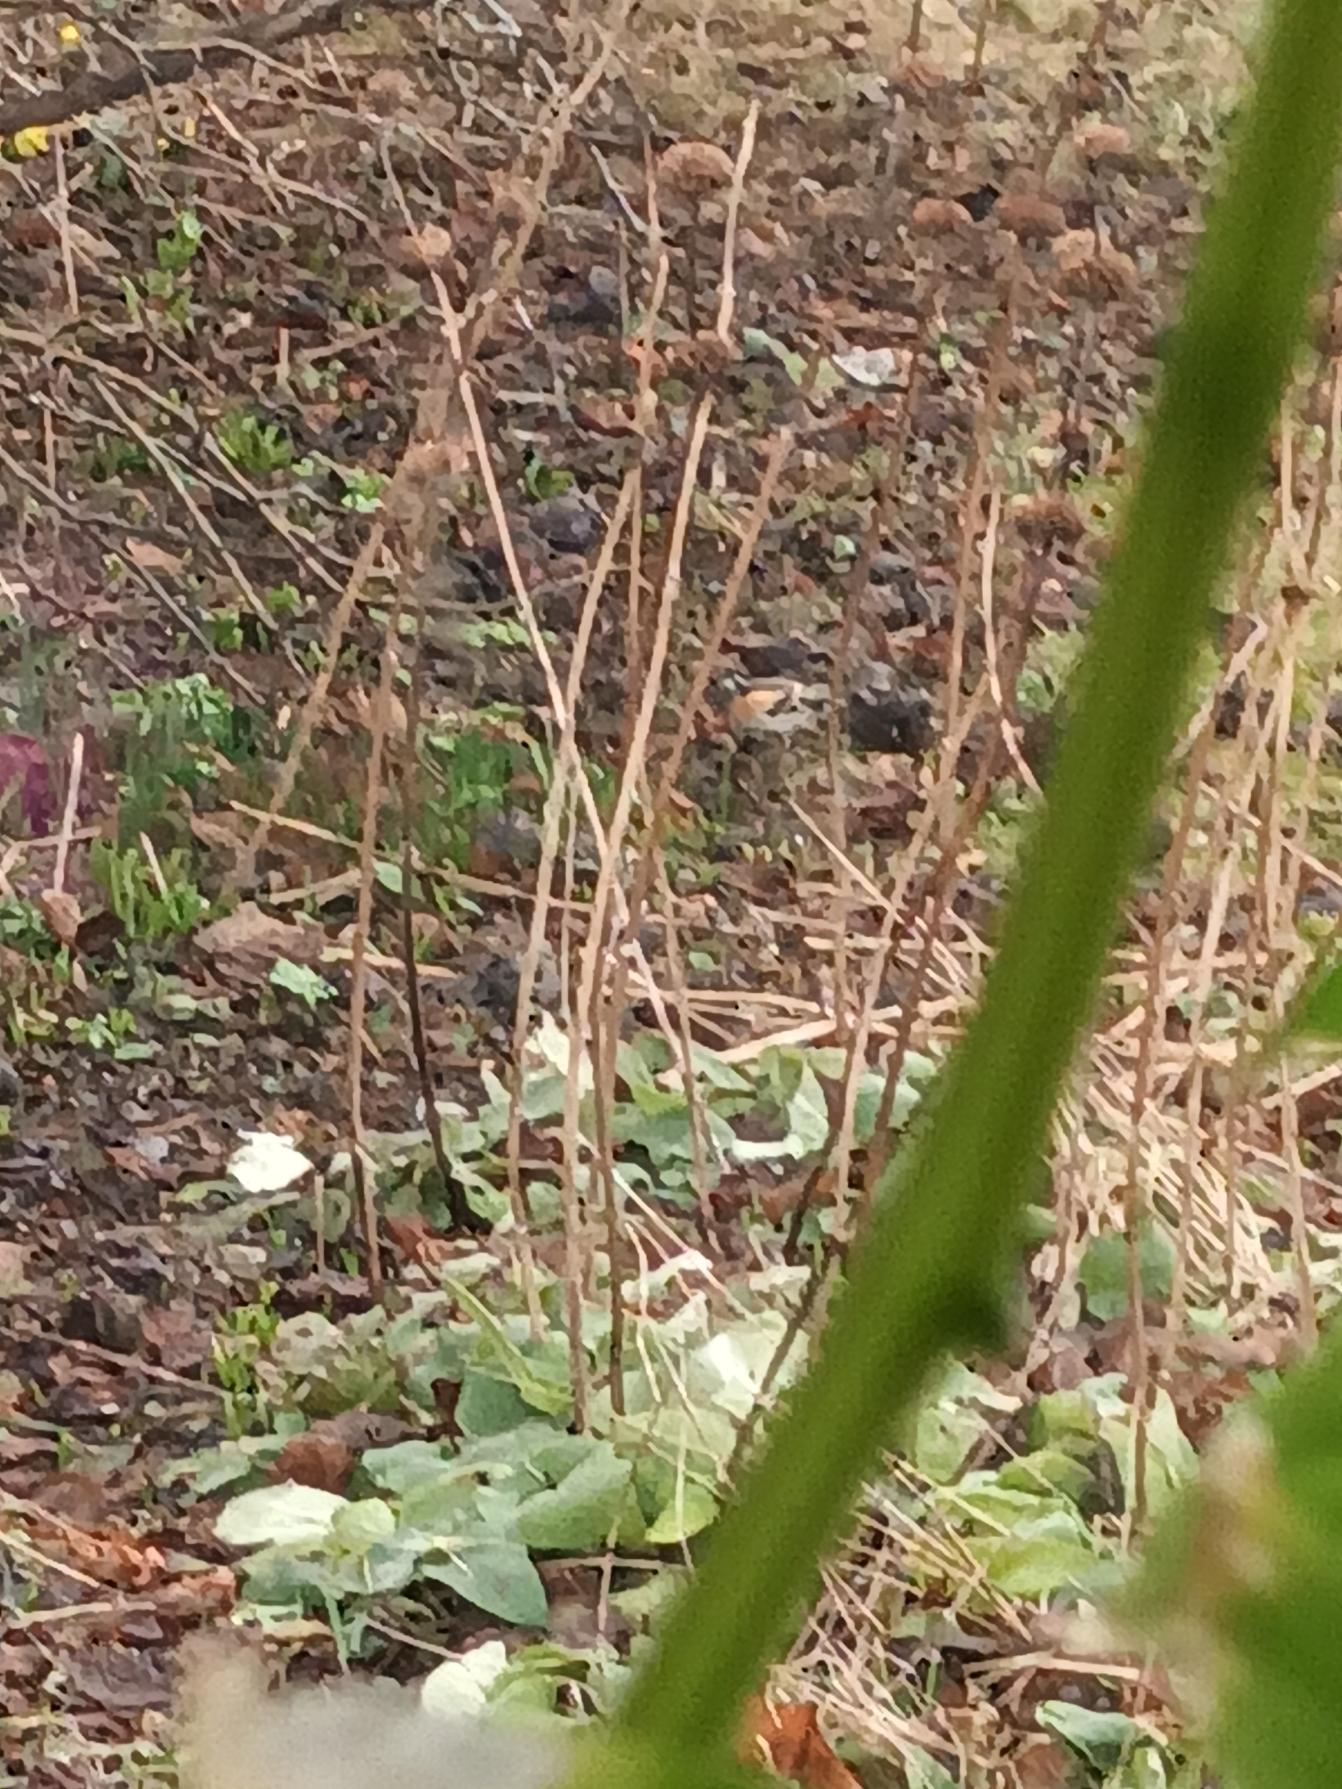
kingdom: Animalia
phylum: Chordata
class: Aves
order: Passeriformes
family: Fringillidae
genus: Fringilla
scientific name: Fringilla montifringilla
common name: Kvækerfinke
